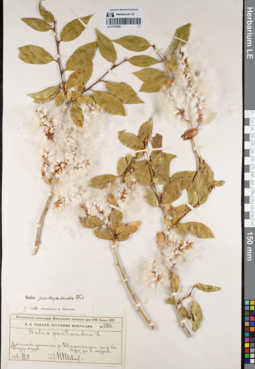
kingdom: Plantae
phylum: Tracheophyta
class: Magnoliopsida
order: Malpighiales
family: Salicaceae
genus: Salix
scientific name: Salix pseudopentandra
